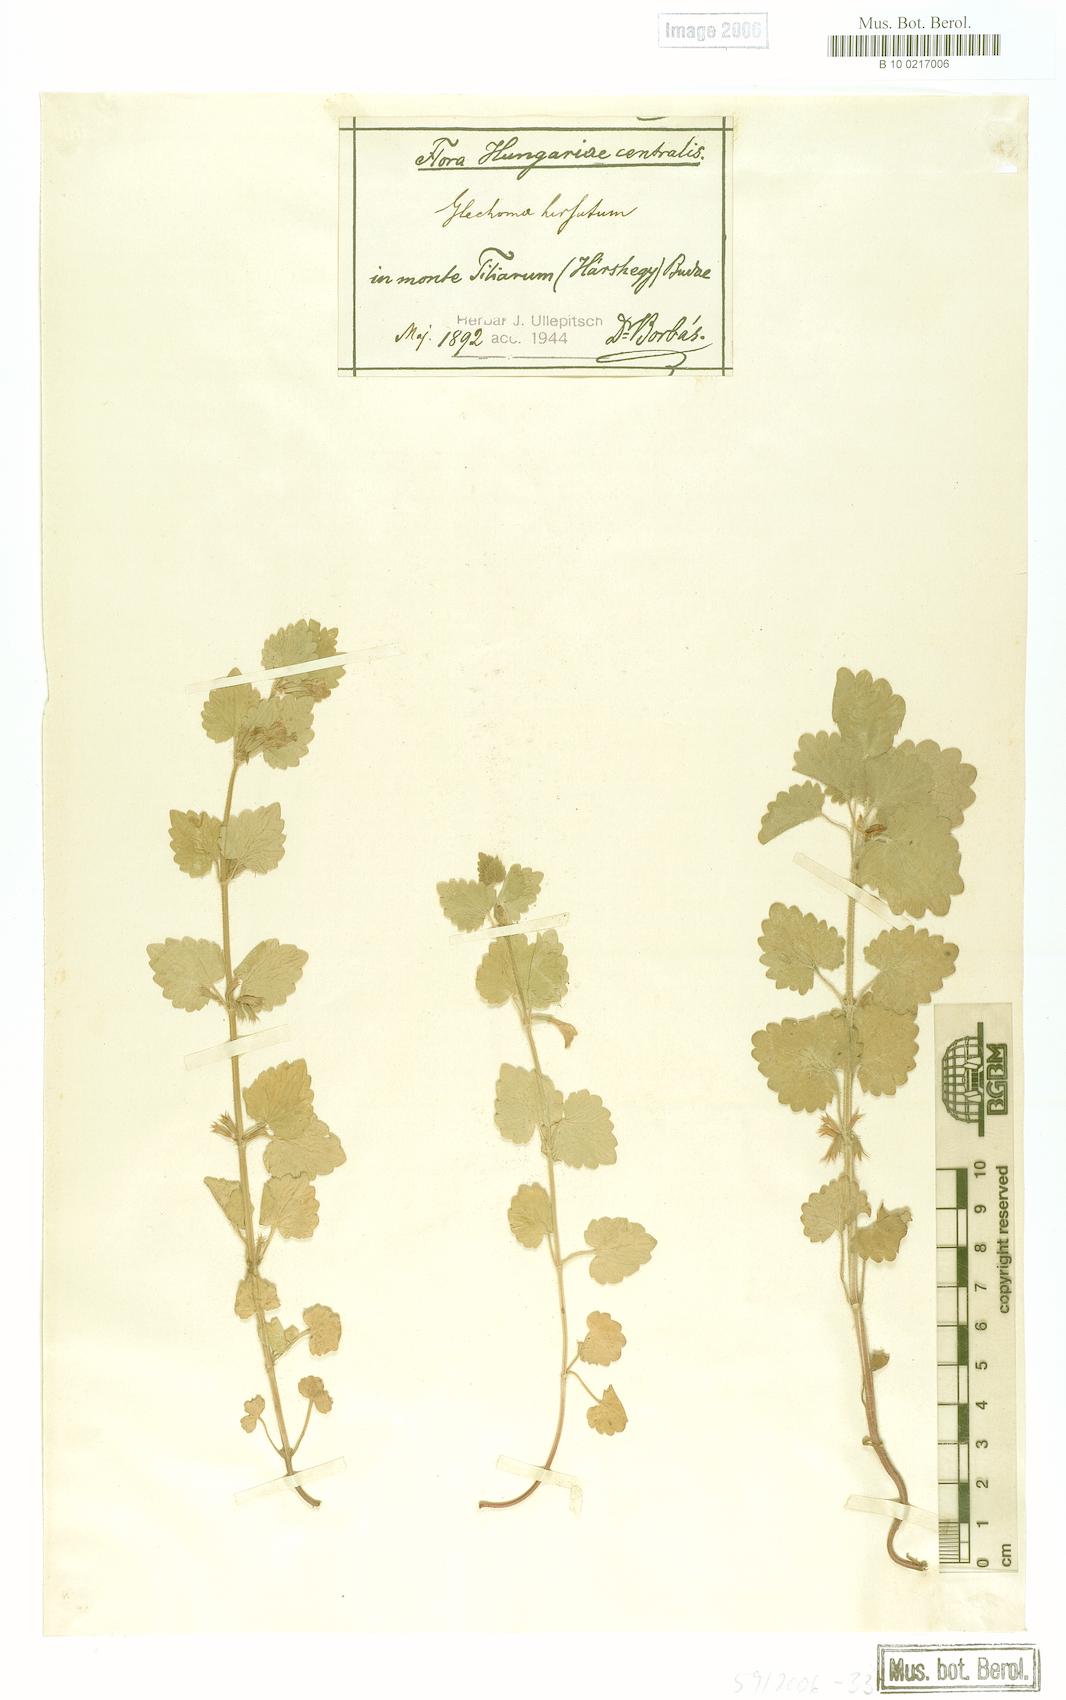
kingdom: Plantae
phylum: Tracheophyta
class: Magnoliopsida
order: Lamiales
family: Lamiaceae
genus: Glechoma
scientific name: Glechoma hirsuta
